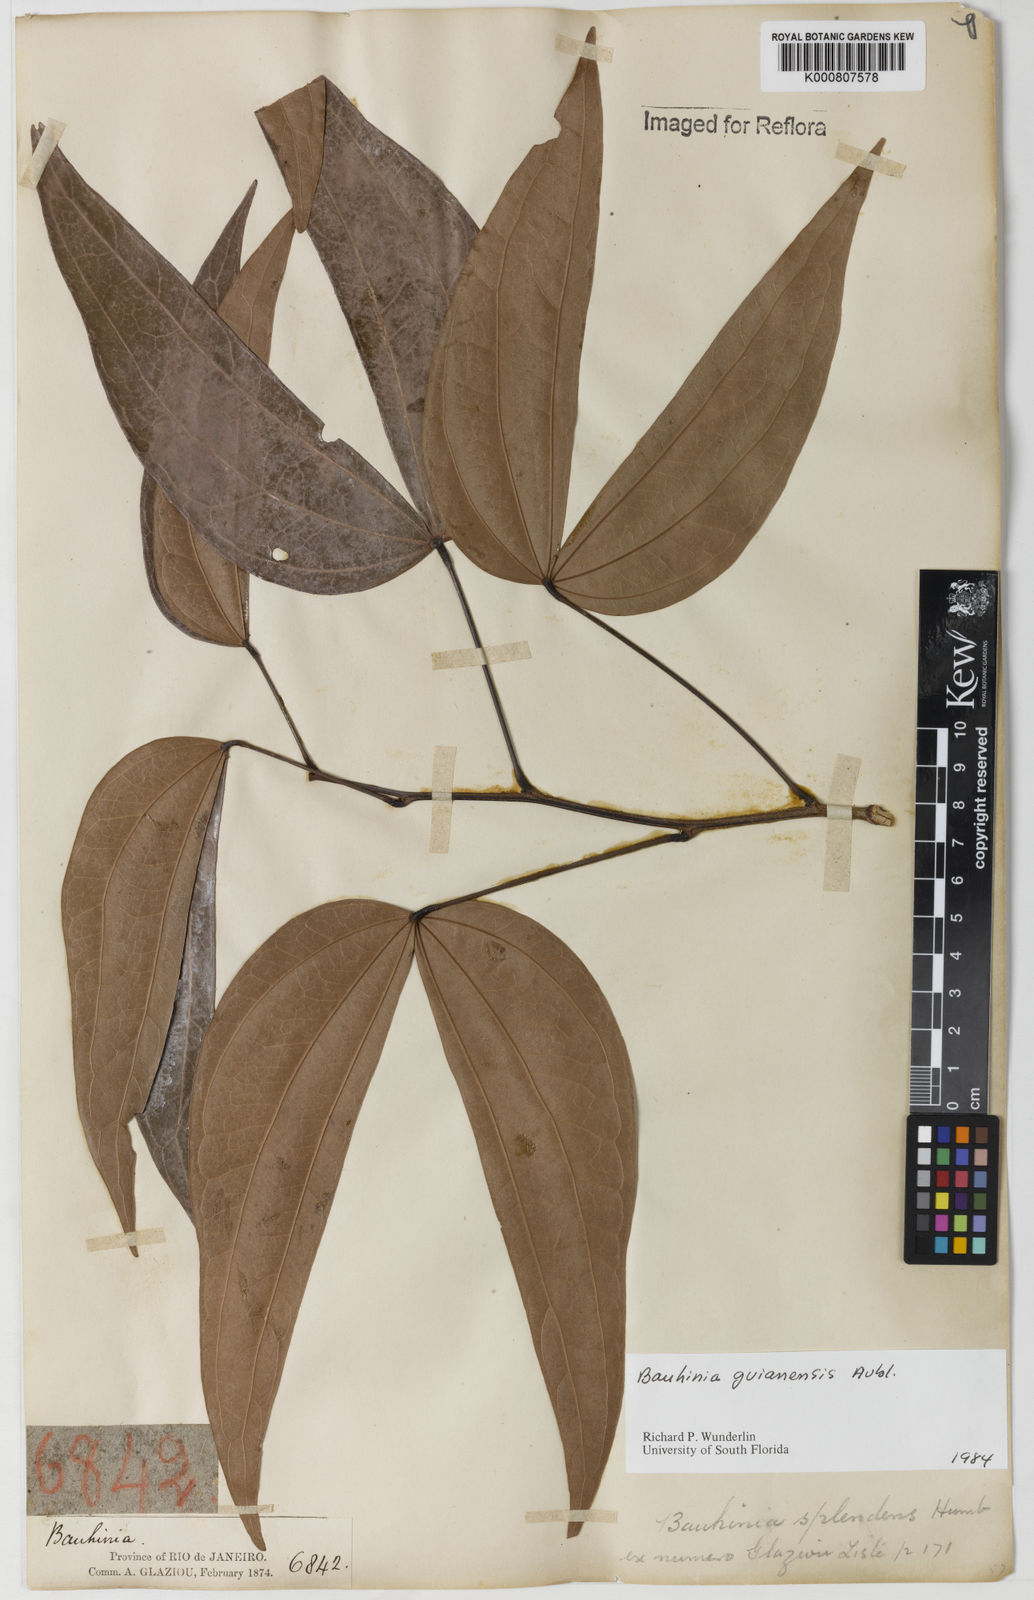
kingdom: Plantae
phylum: Tracheophyta
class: Magnoliopsida
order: Fabales
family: Fabaceae
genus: Schnella
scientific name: Schnella guianensis
